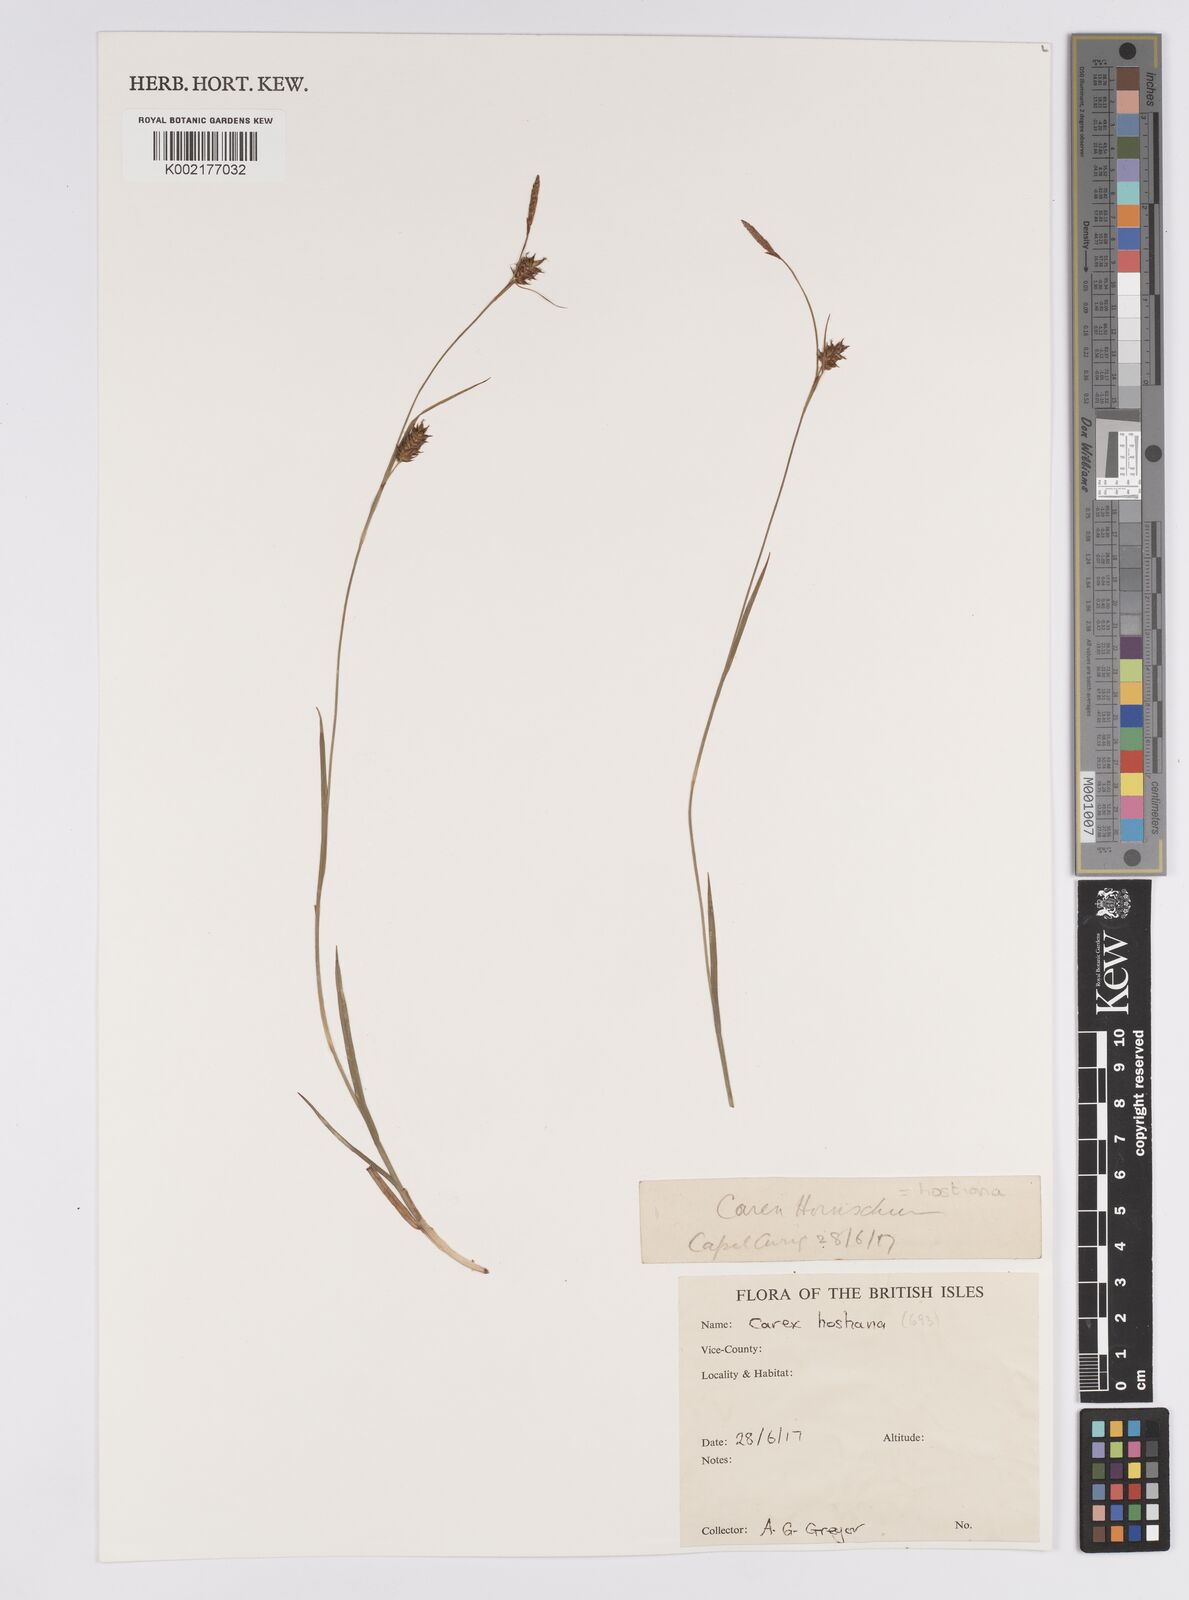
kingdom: Plantae
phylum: Tracheophyta
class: Liliopsida
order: Poales
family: Cyperaceae
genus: Carex
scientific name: Carex hostiana
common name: Tawny sedge
